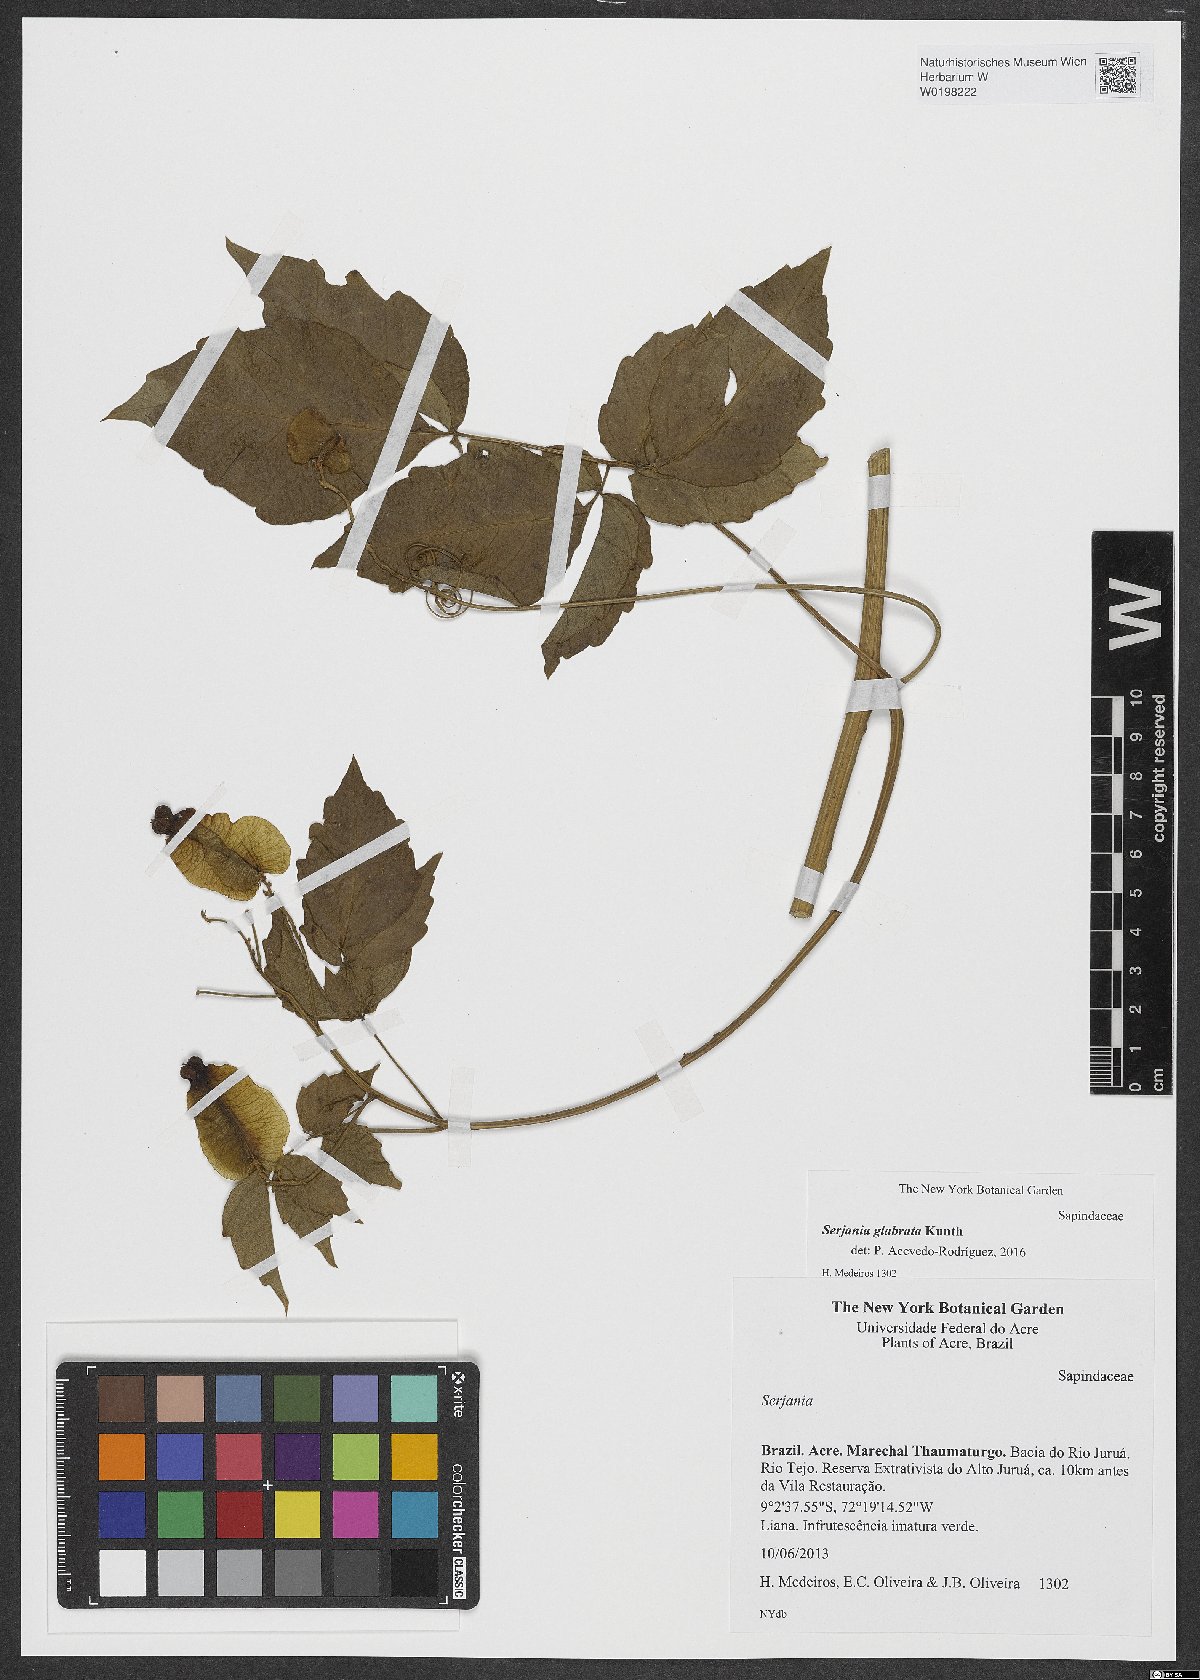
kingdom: Plantae
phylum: Tracheophyta
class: Magnoliopsida
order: Sapindales
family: Sapindaceae
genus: Serjania
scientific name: Serjania glabrata
